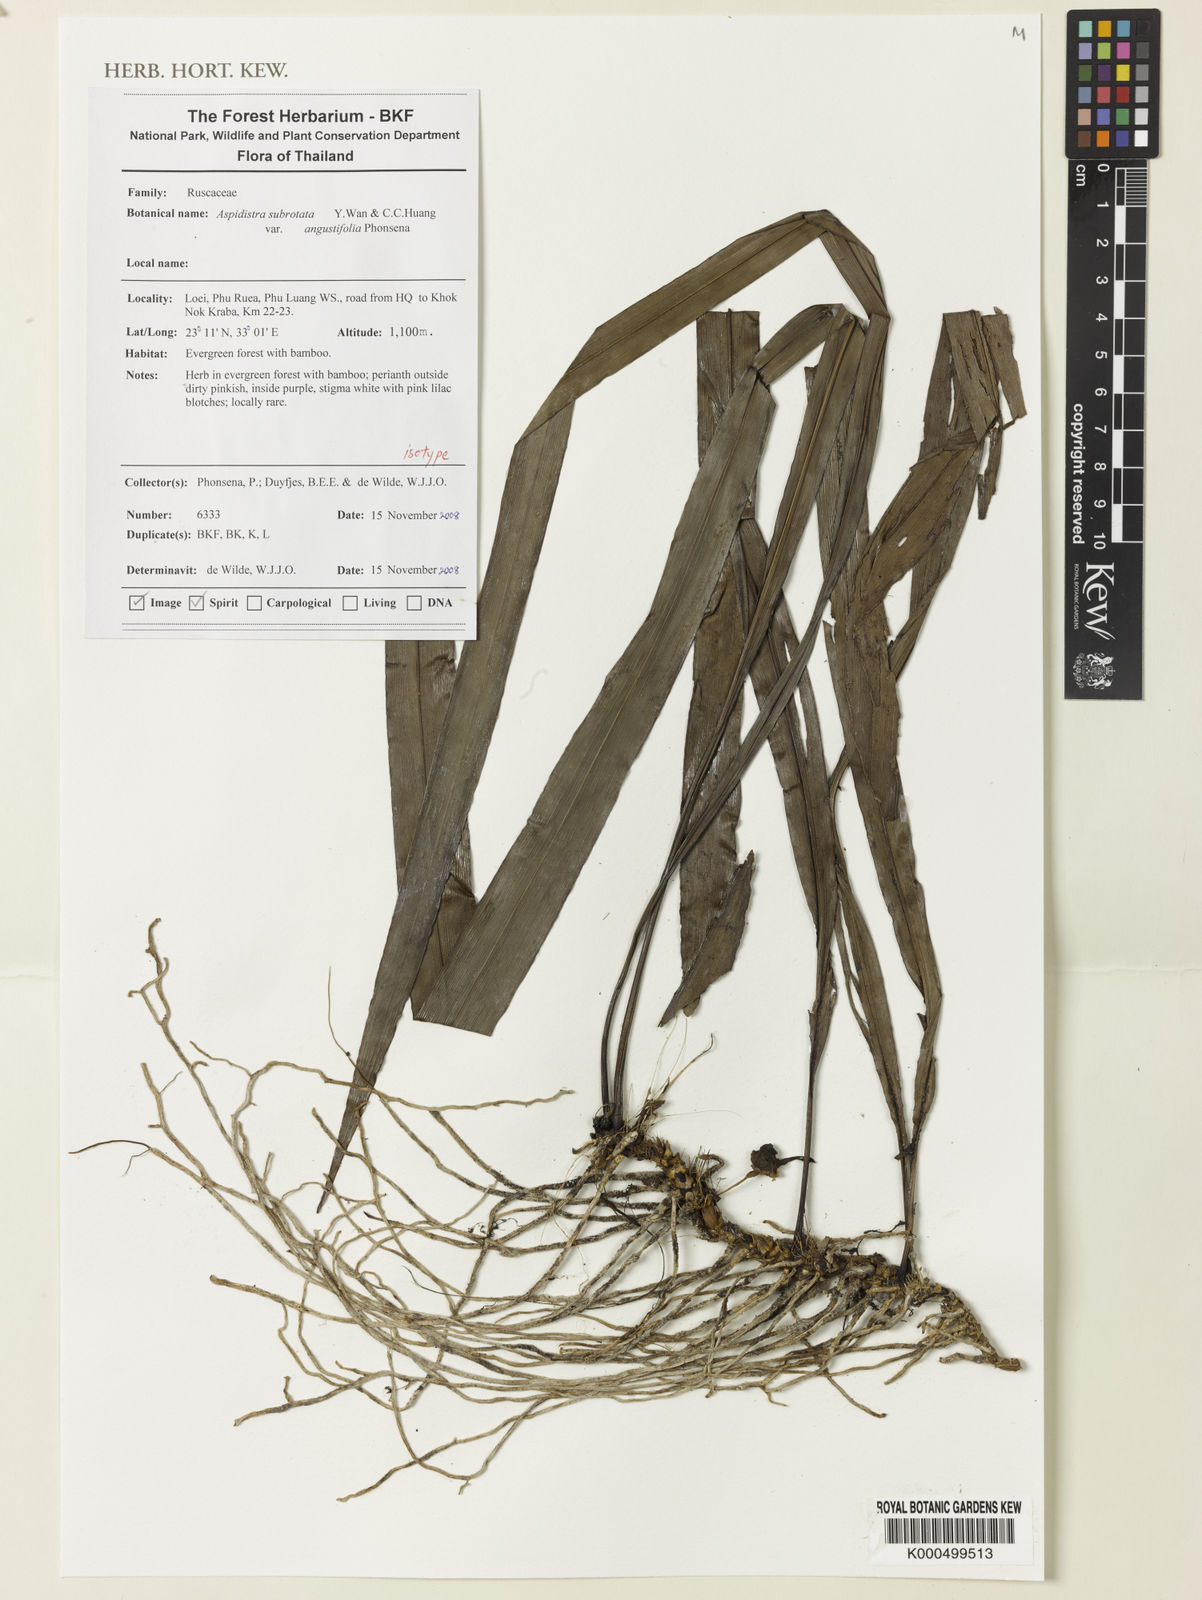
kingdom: Plantae
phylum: Tracheophyta
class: Liliopsida
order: Asparagales
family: Asparagaceae
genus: Aspidistra
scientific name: Aspidistra subrotata
